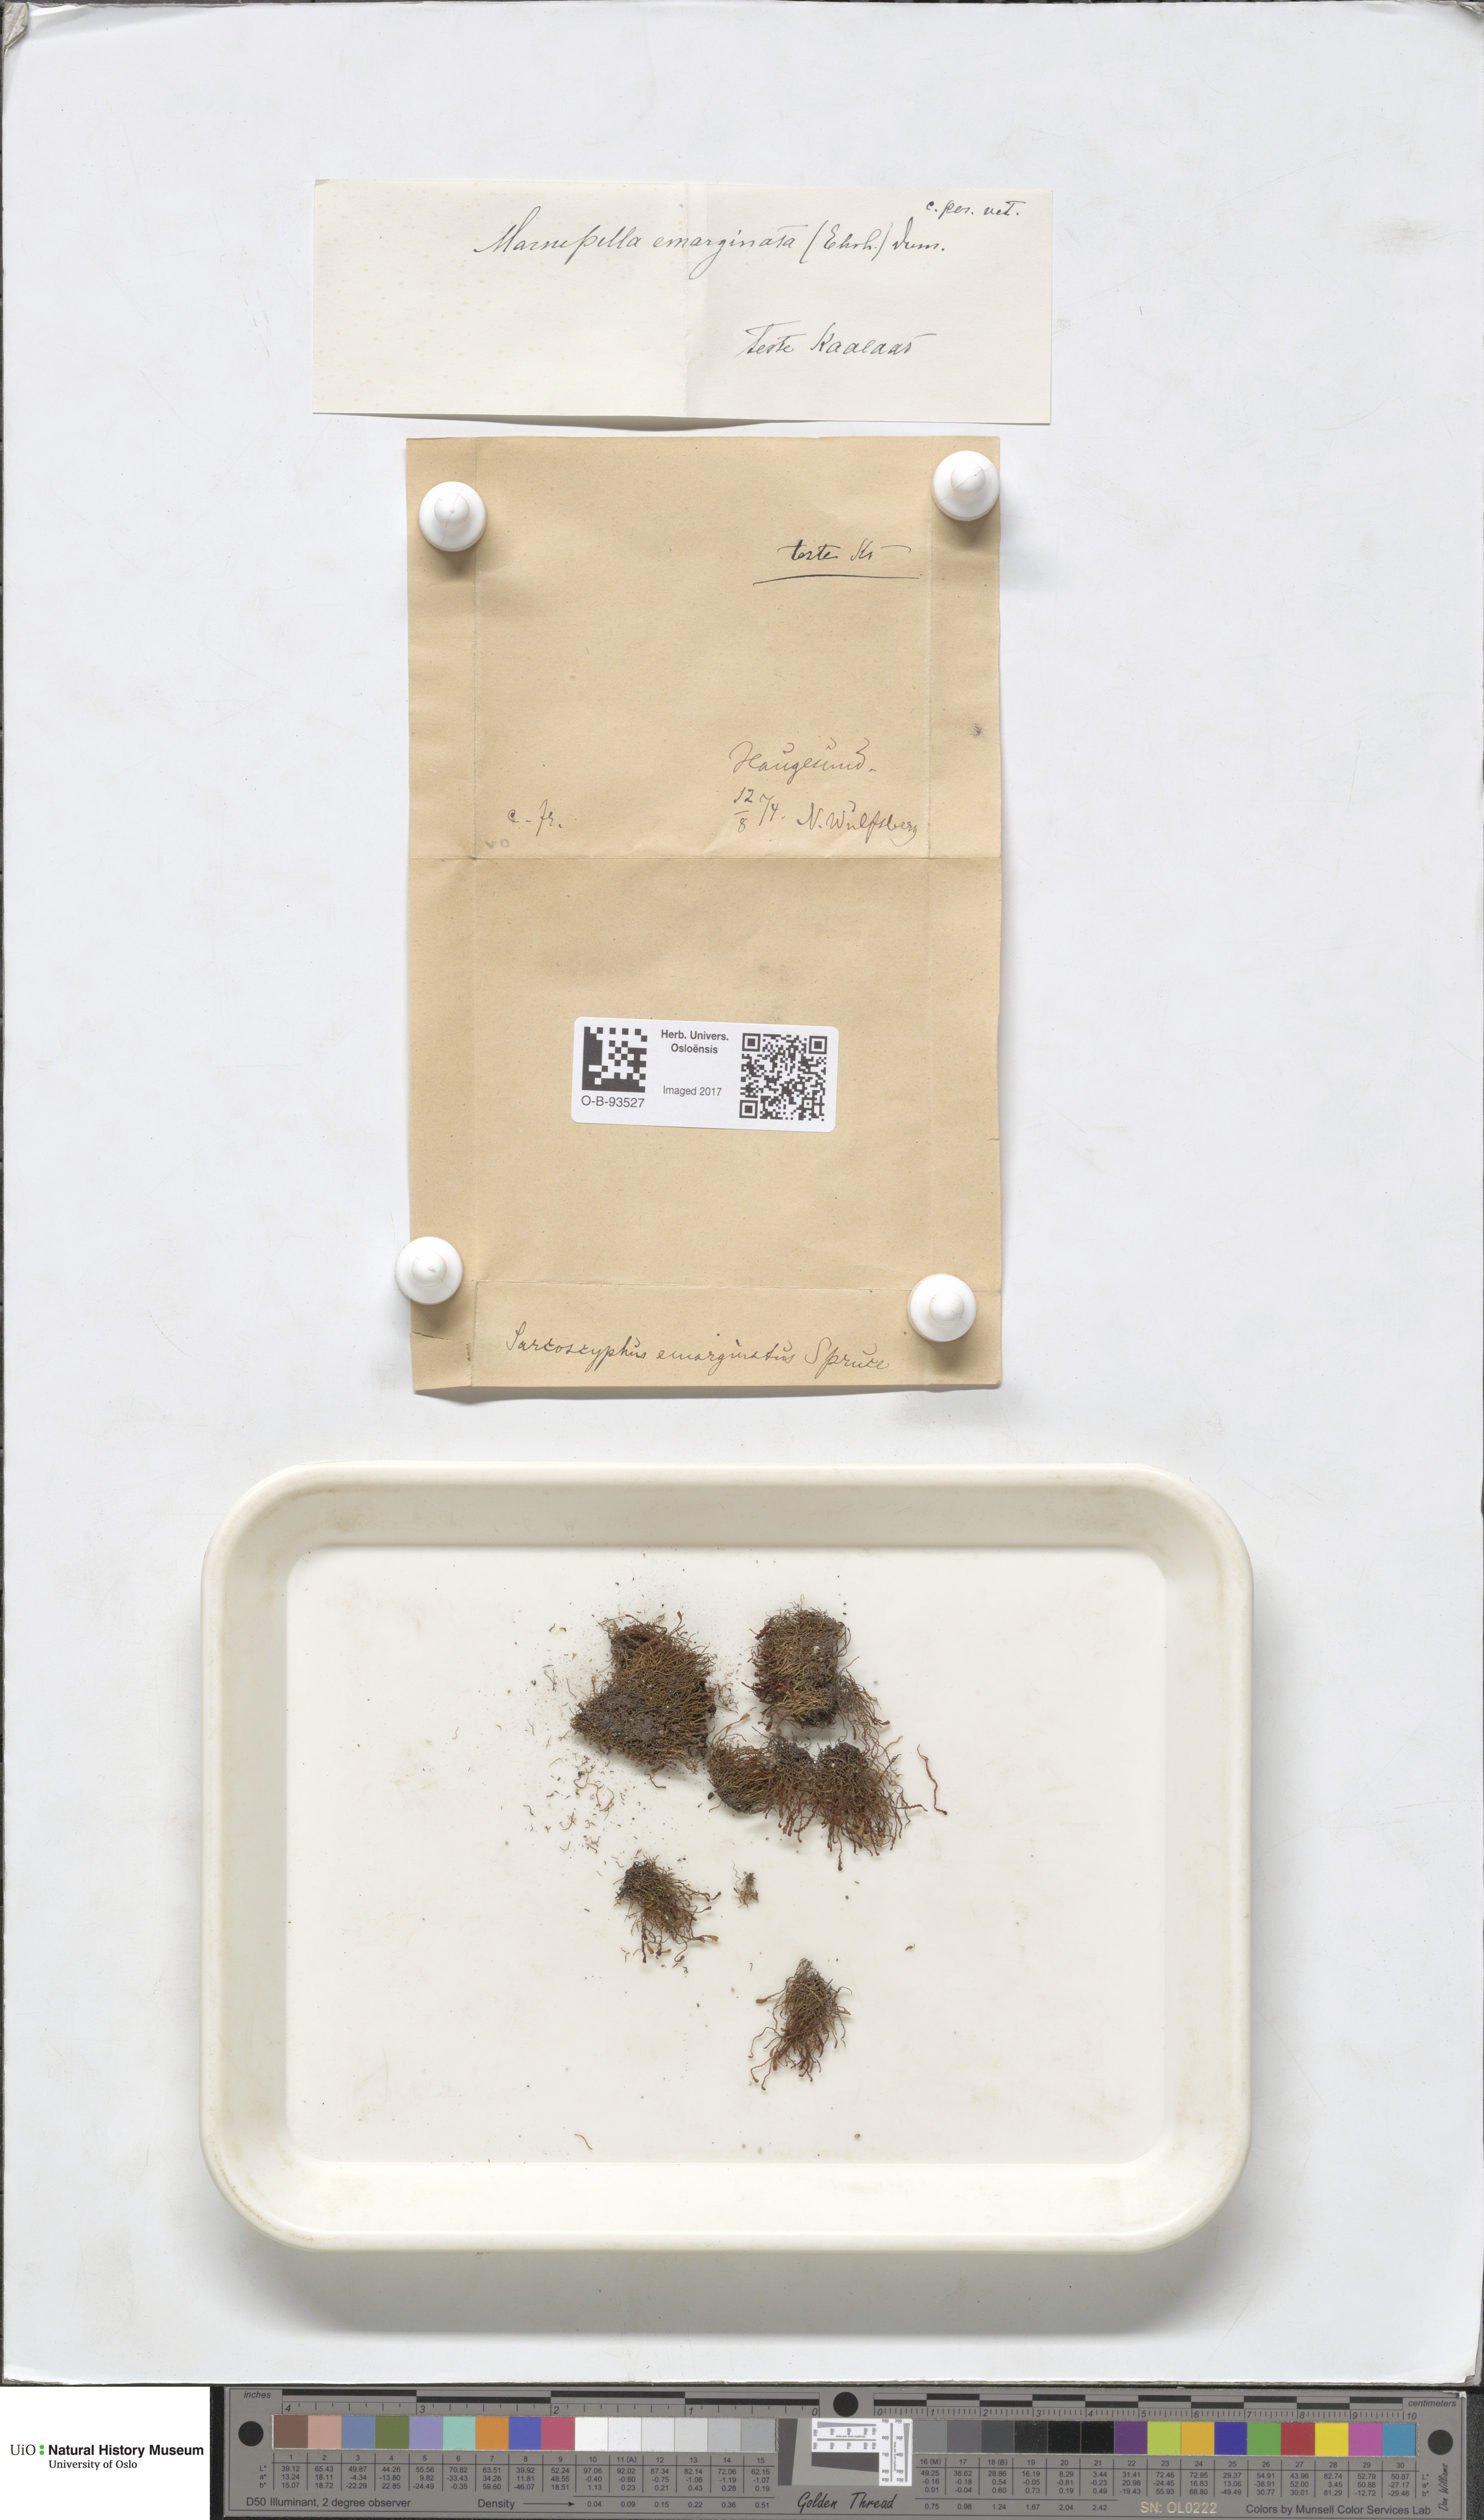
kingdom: Plantae
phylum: Marchantiophyta
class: Jungermanniopsida
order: Jungermanniales
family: Gymnomitriaceae
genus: Marsupella
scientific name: Marsupella emarginata
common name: Notched rustwort
